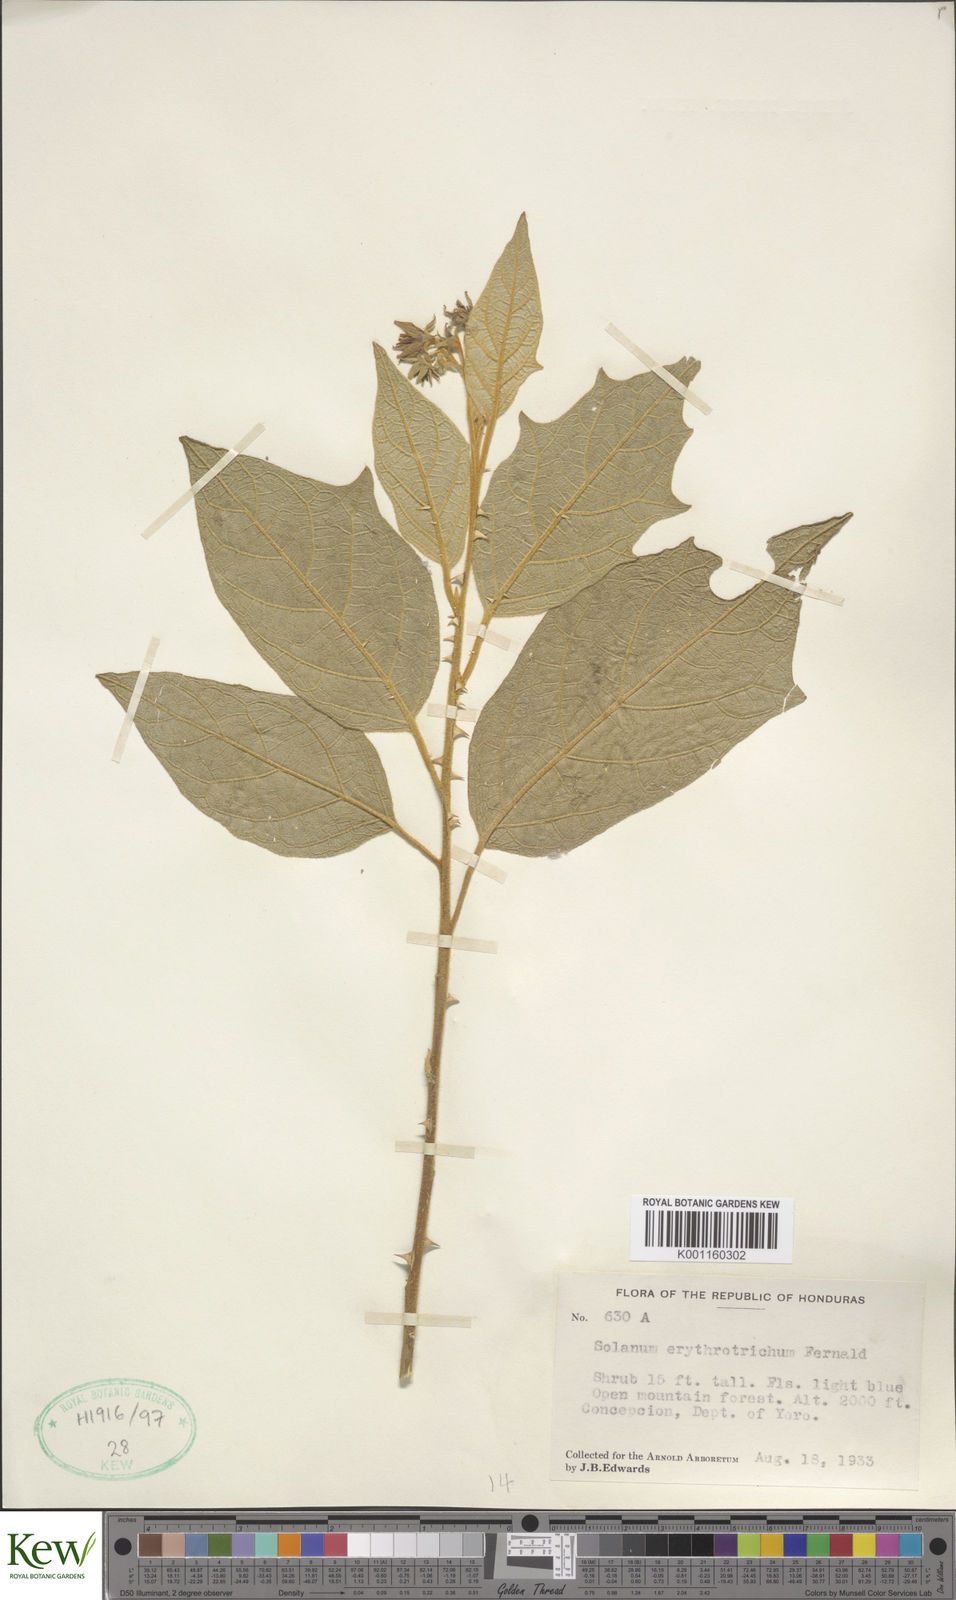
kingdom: Plantae
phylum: Tracheophyta
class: Magnoliopsida
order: Solanales
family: Solanaceae
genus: Solanum
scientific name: Solanum erythrotrichum
